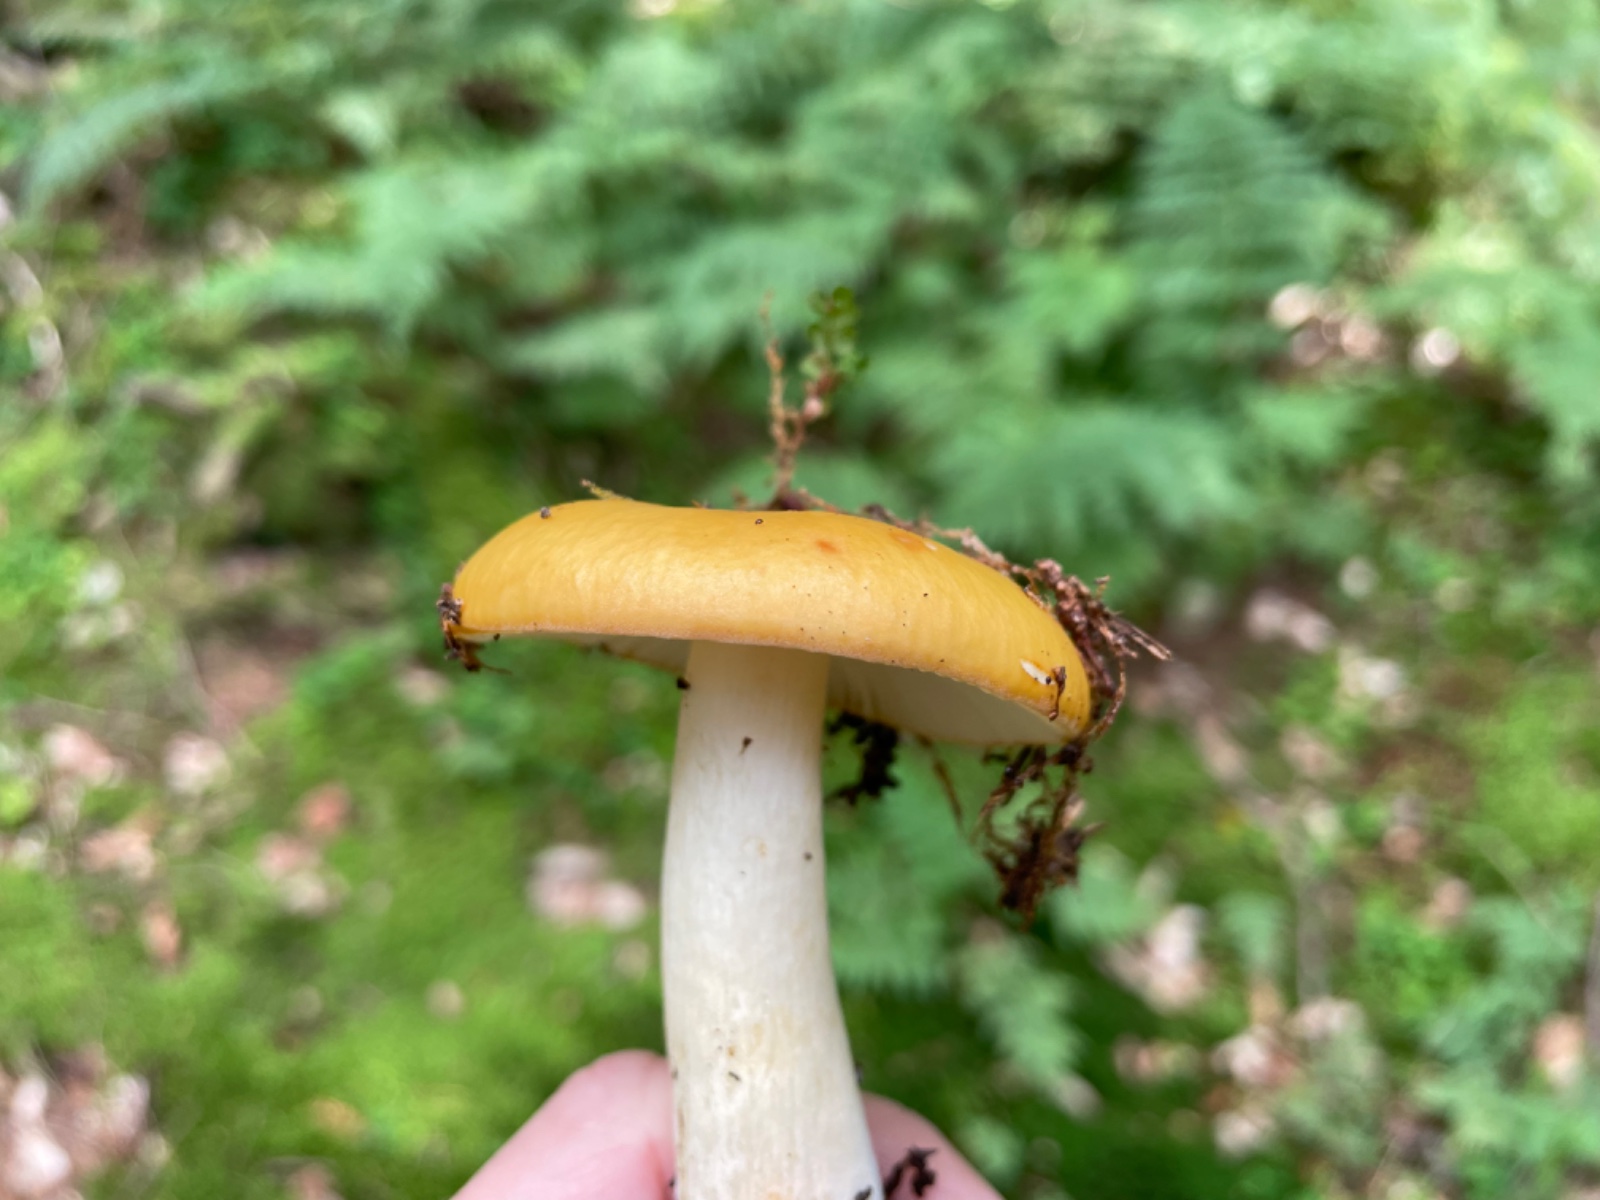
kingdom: Fungi
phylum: Basidiomycota
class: Agaricomycetes
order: Russulales
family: Russulaceae
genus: Russula
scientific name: Russula ochroleuca
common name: okkergul skørhat
